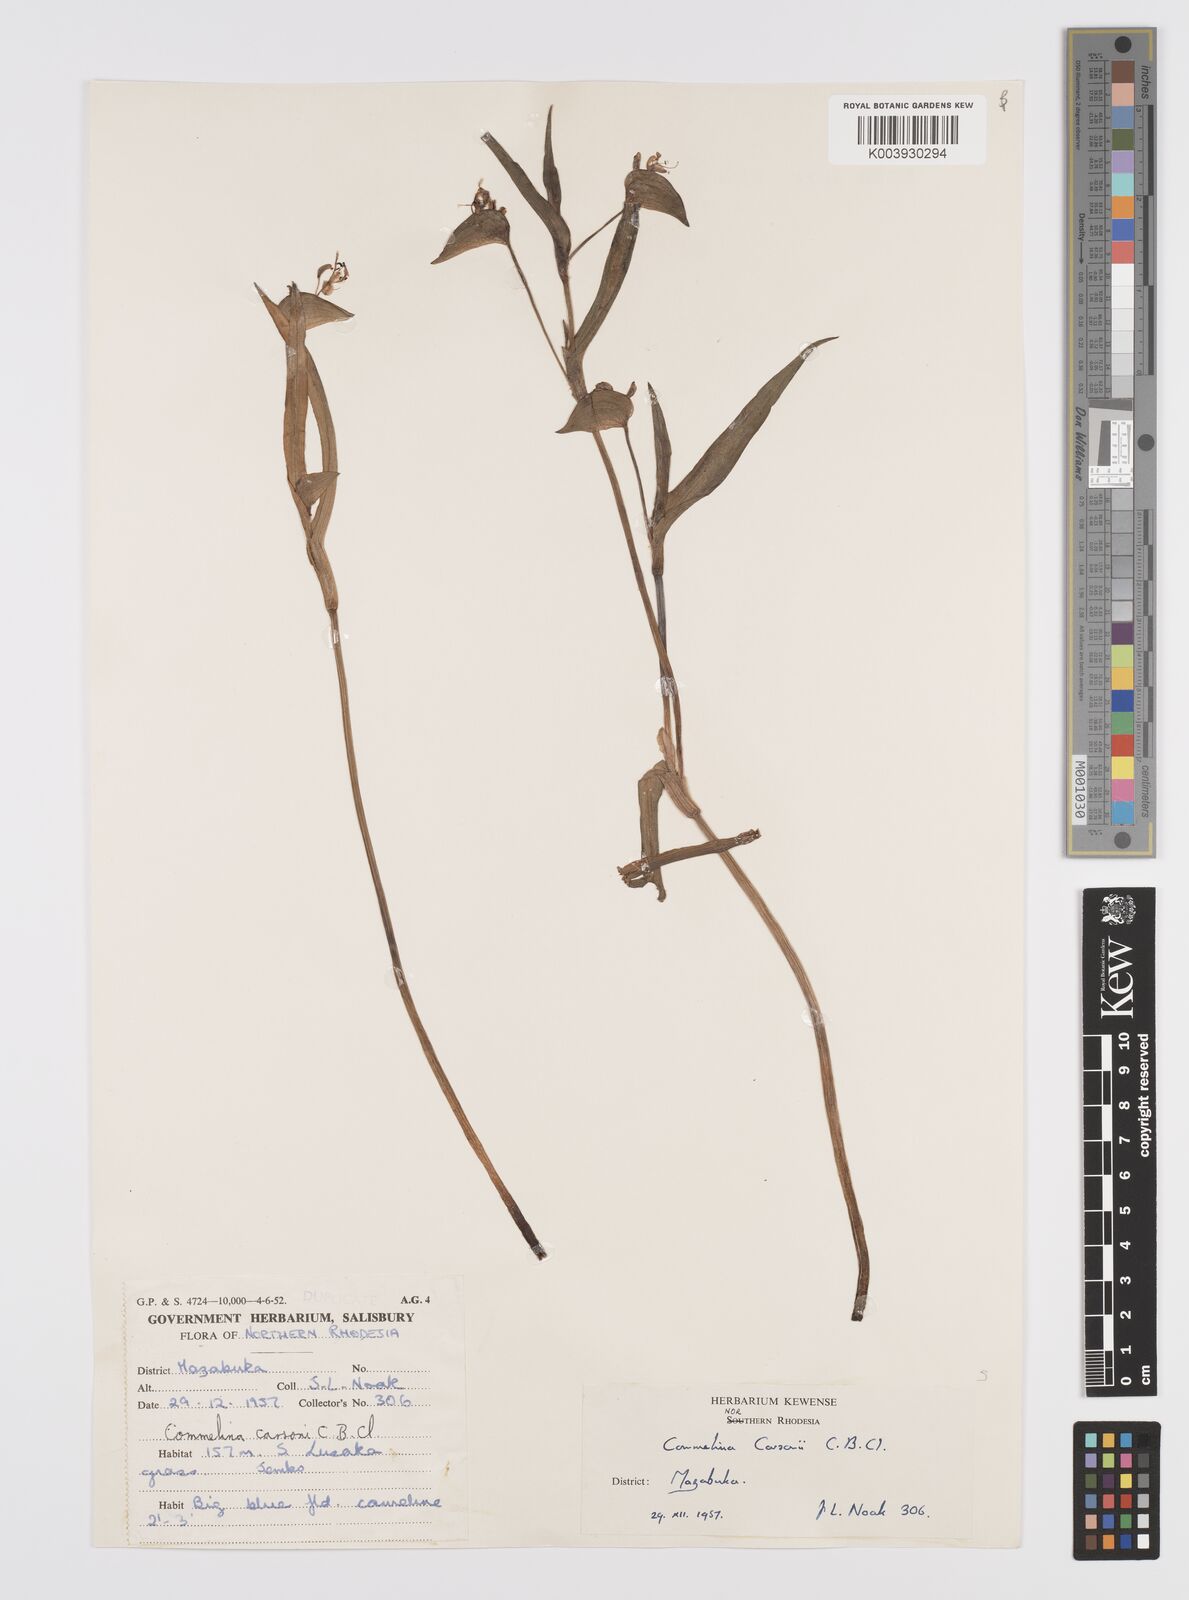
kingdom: Plantae
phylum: Tracheophyta
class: Liliopsida
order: Commelinales
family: Commelinaceae
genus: Commelina
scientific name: Commelina schweinfurthii
